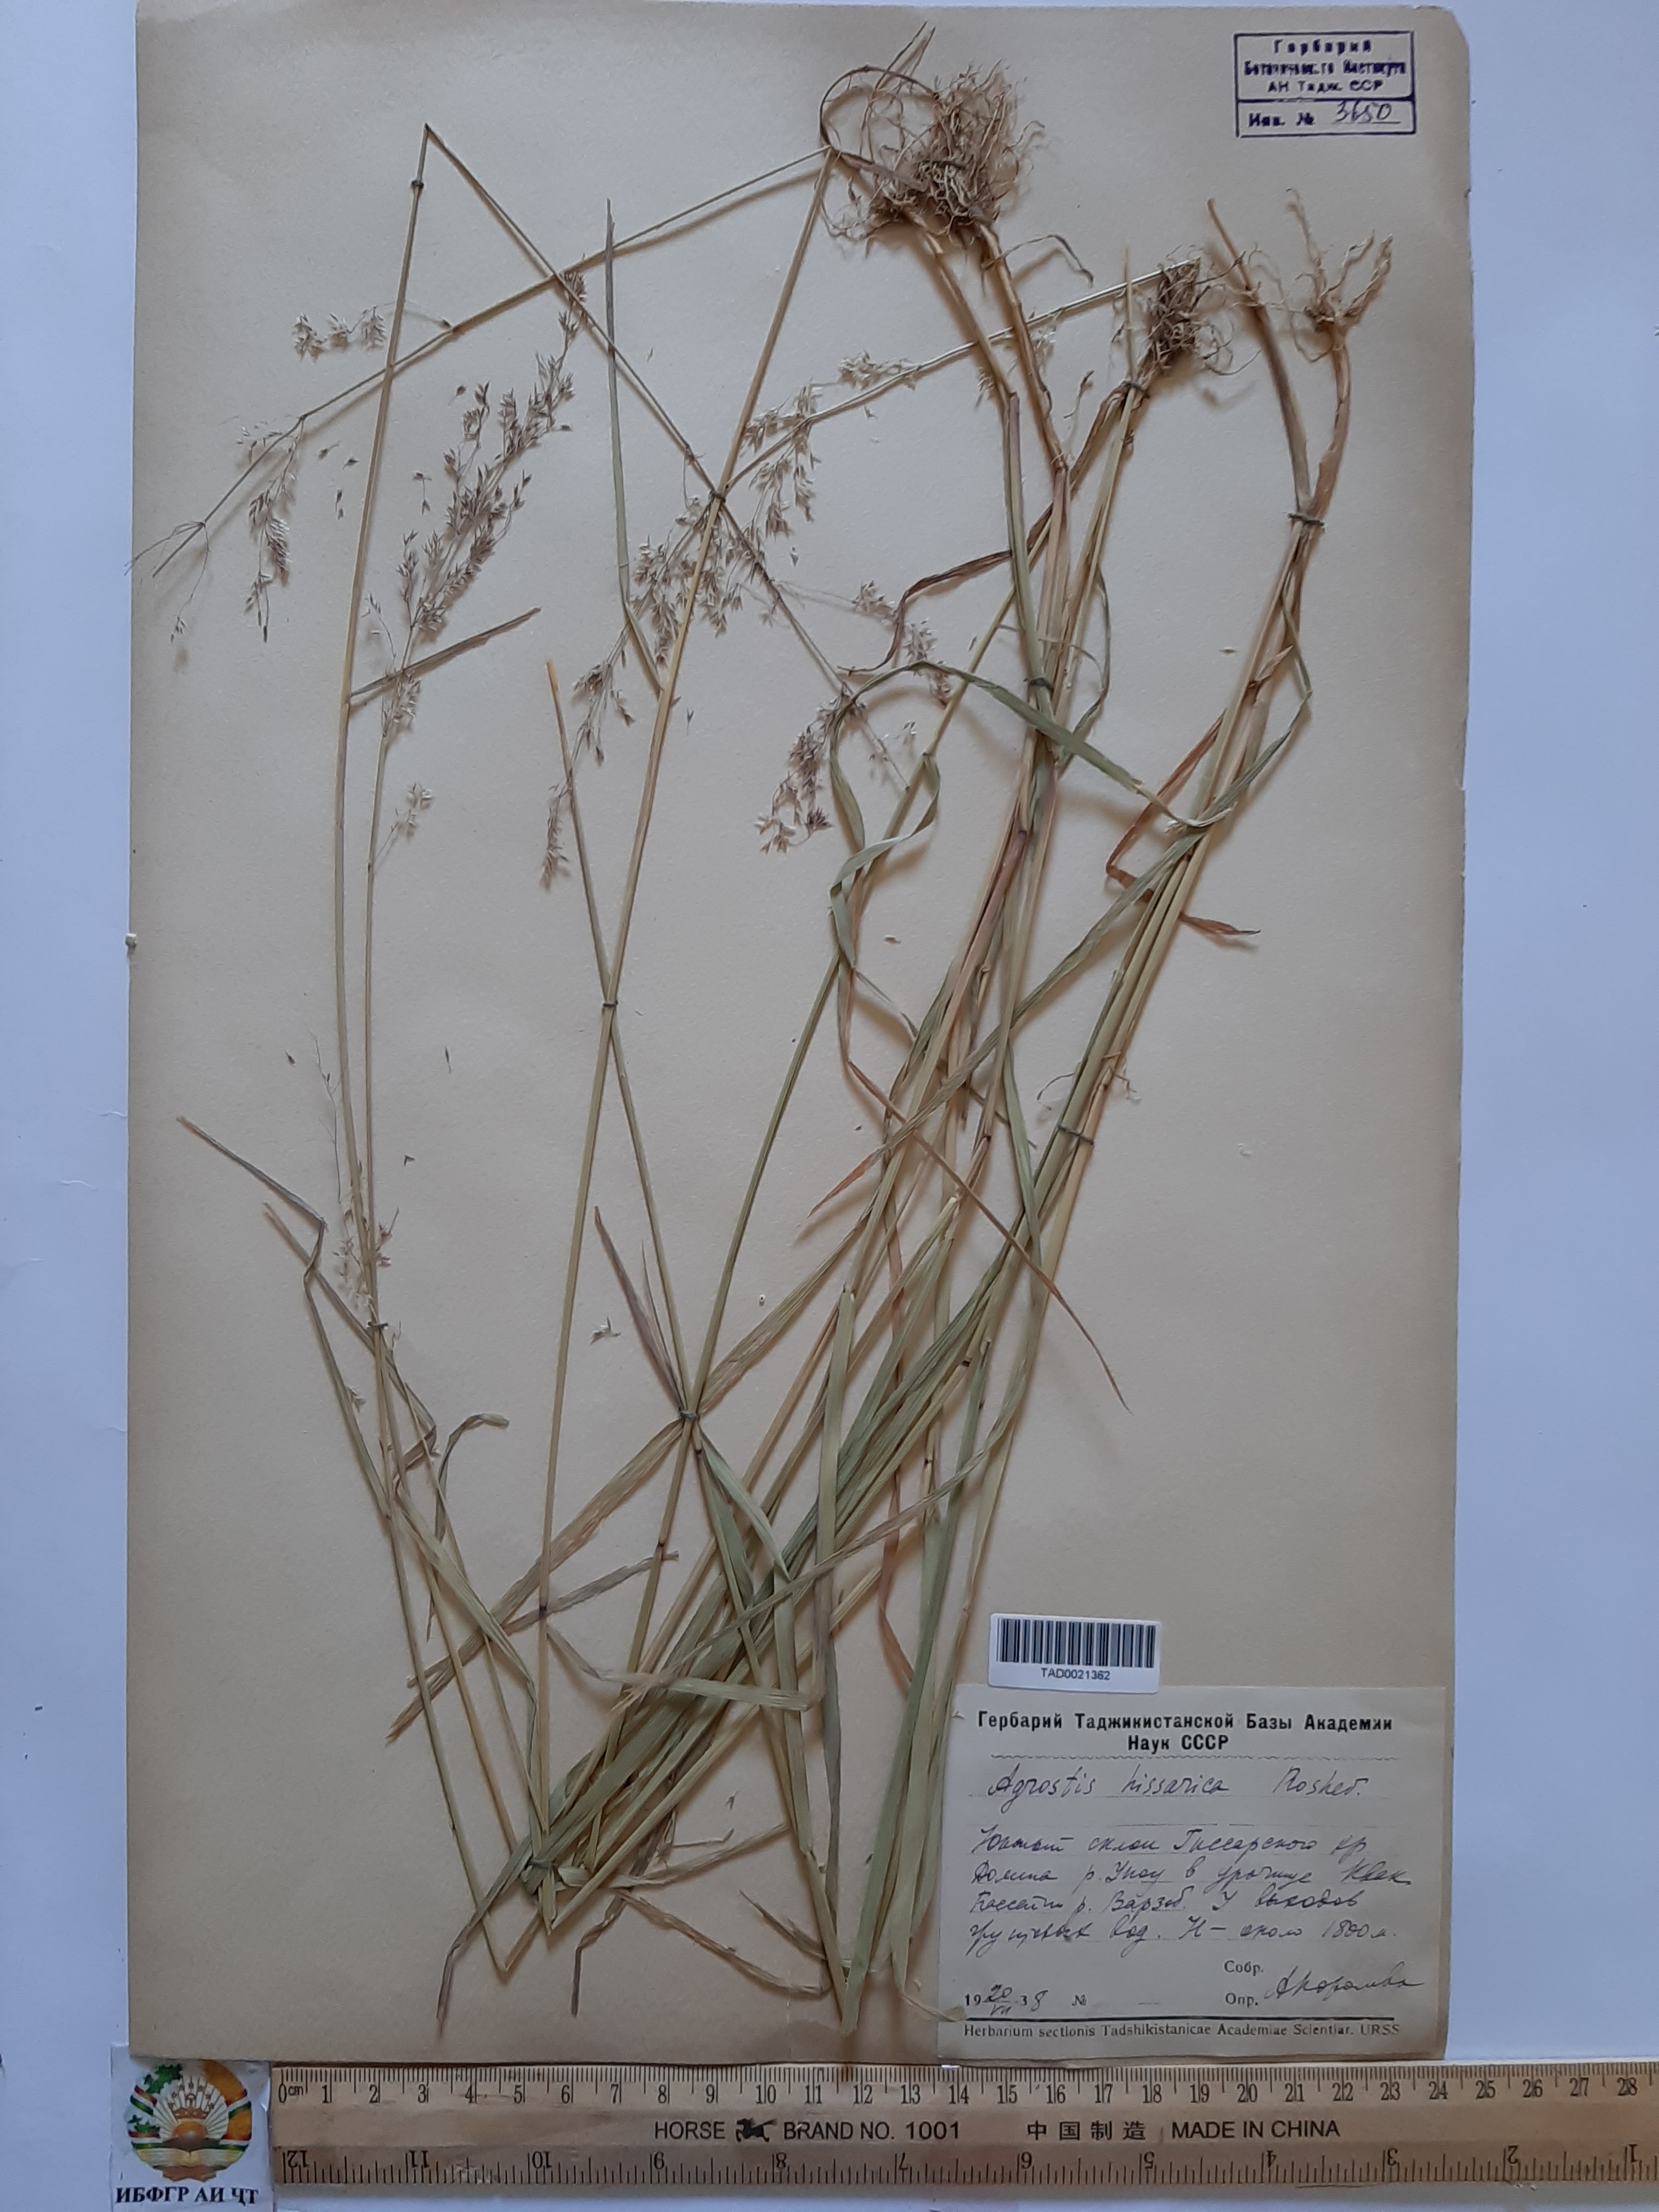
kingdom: Plantae
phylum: Tracheophyta
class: Liliopsida
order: Poales
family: Poaceae
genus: Polypogon
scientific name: Polypogon hissaricus
